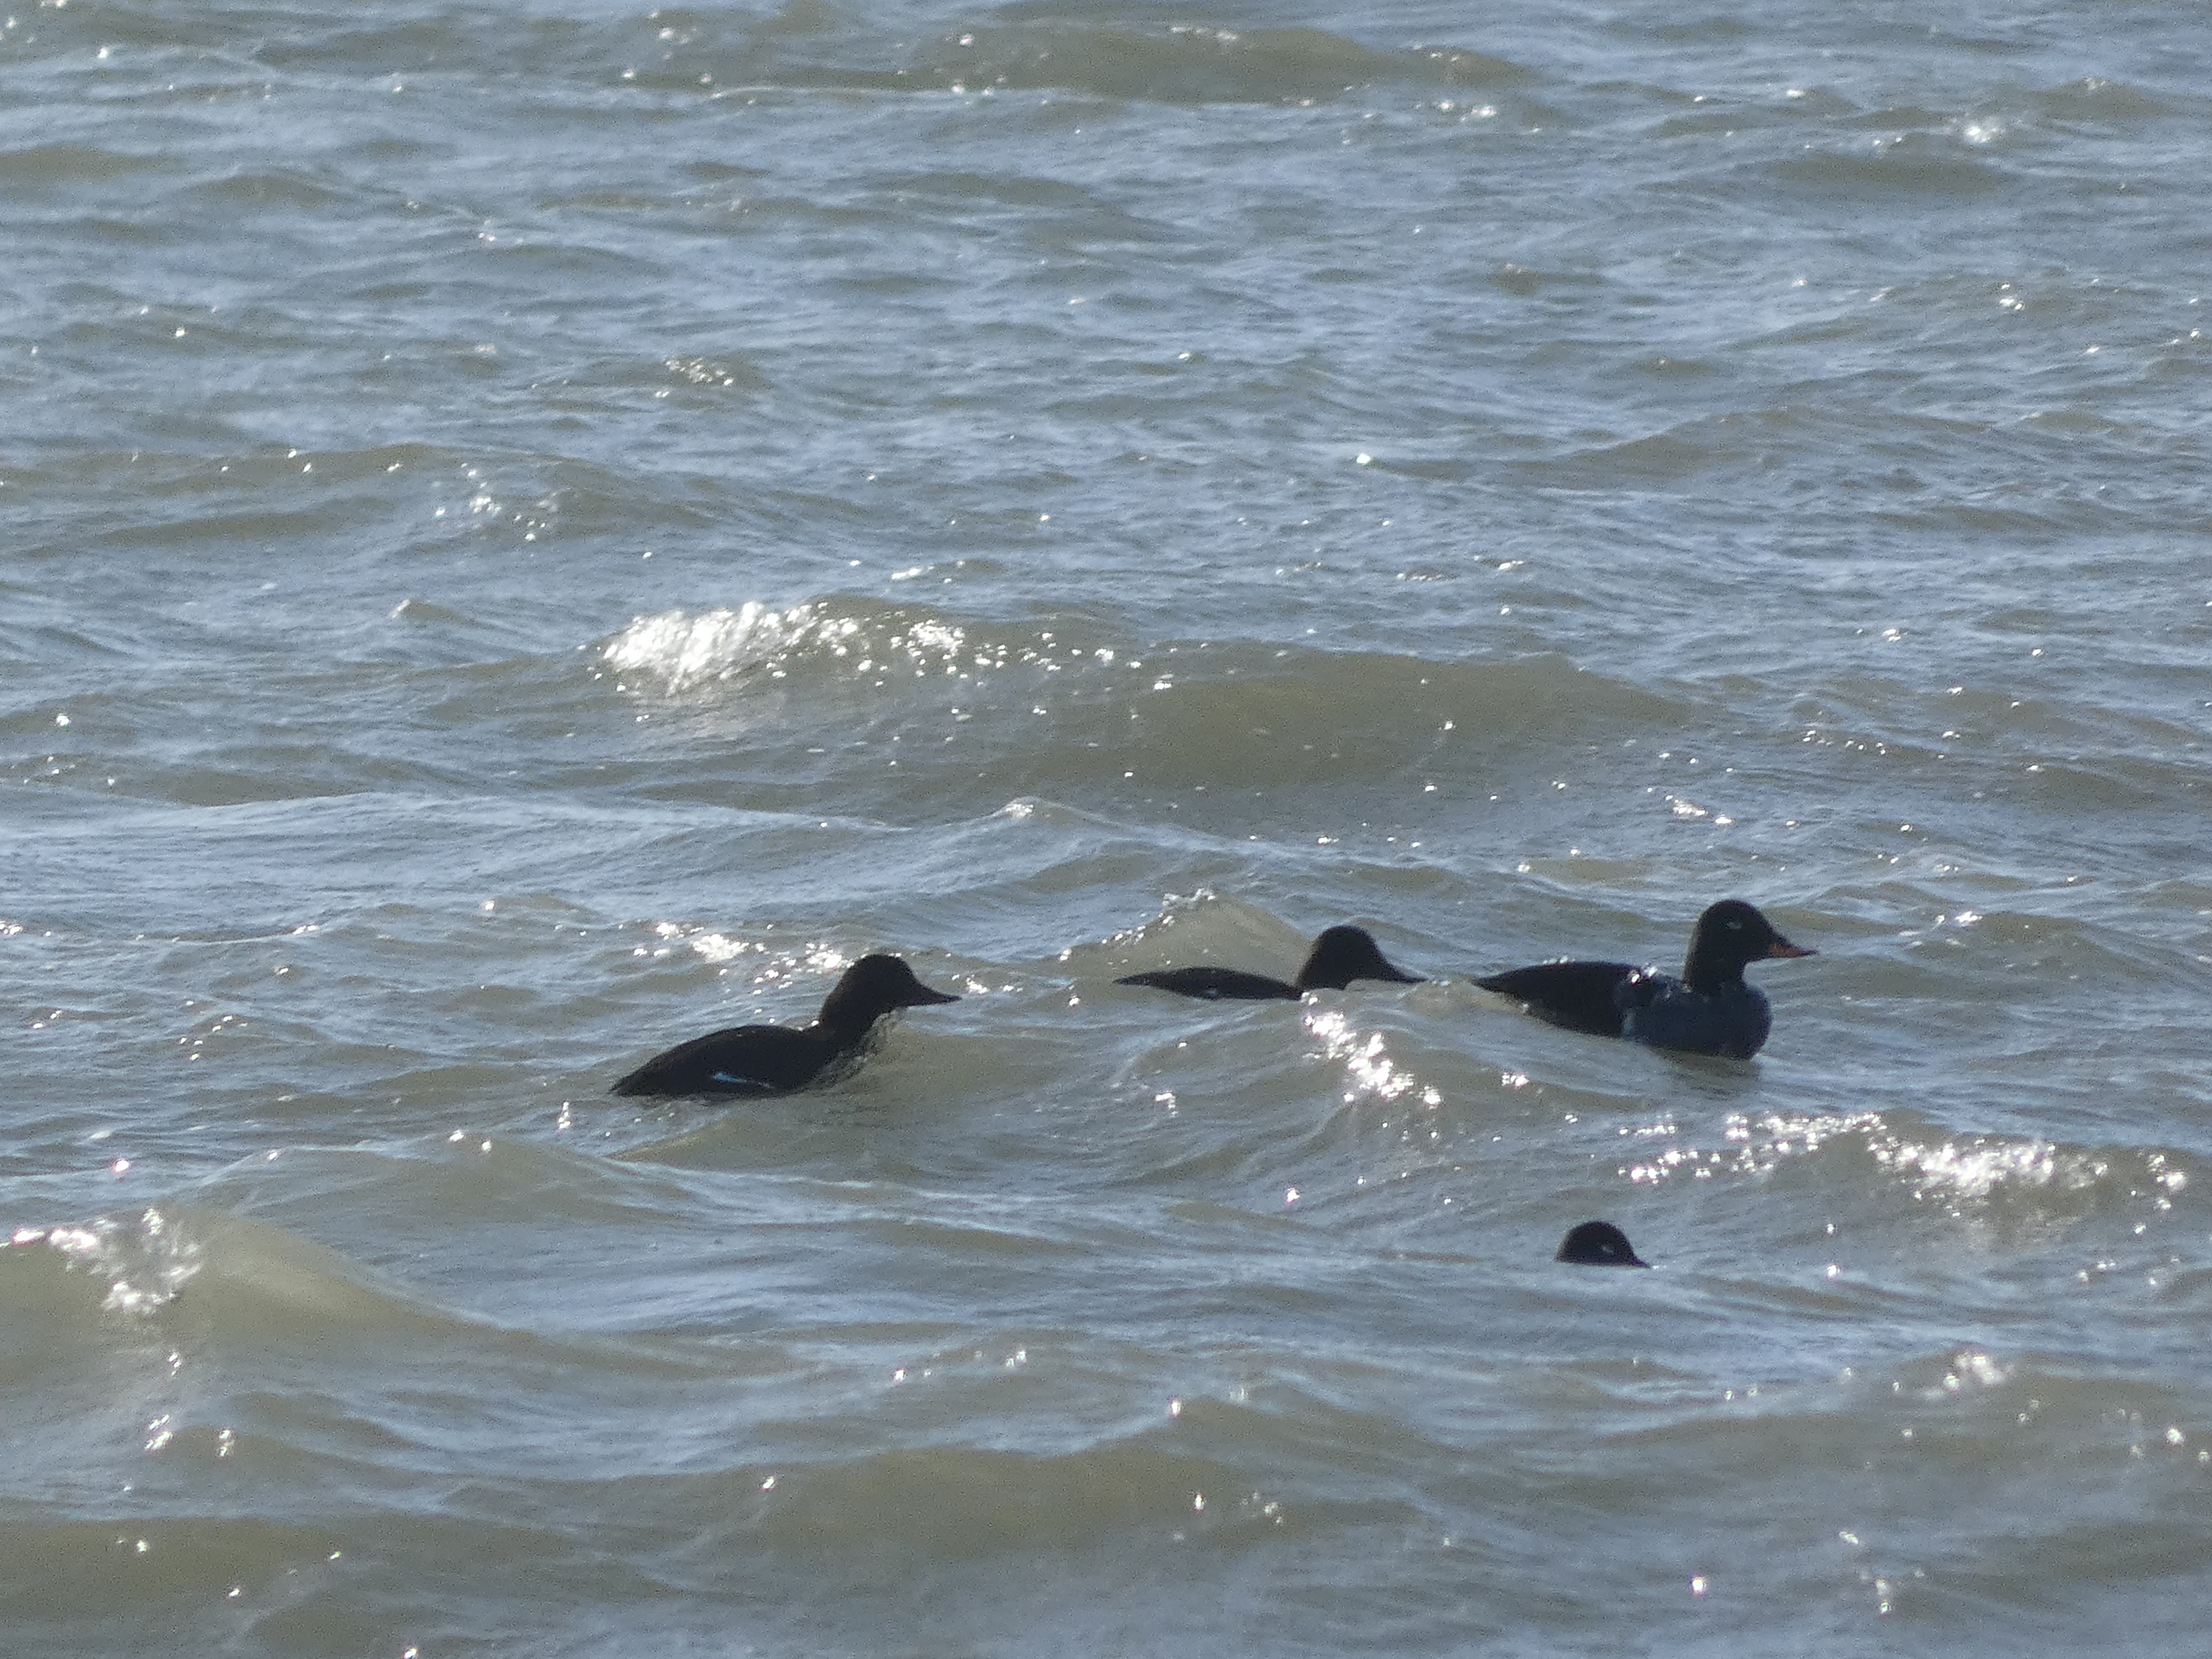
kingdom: Animalia
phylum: Chordata
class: Aves
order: Anseriformes
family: Anatidae
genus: Melanitta
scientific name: Melanitta fusca
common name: Fløjlsand
